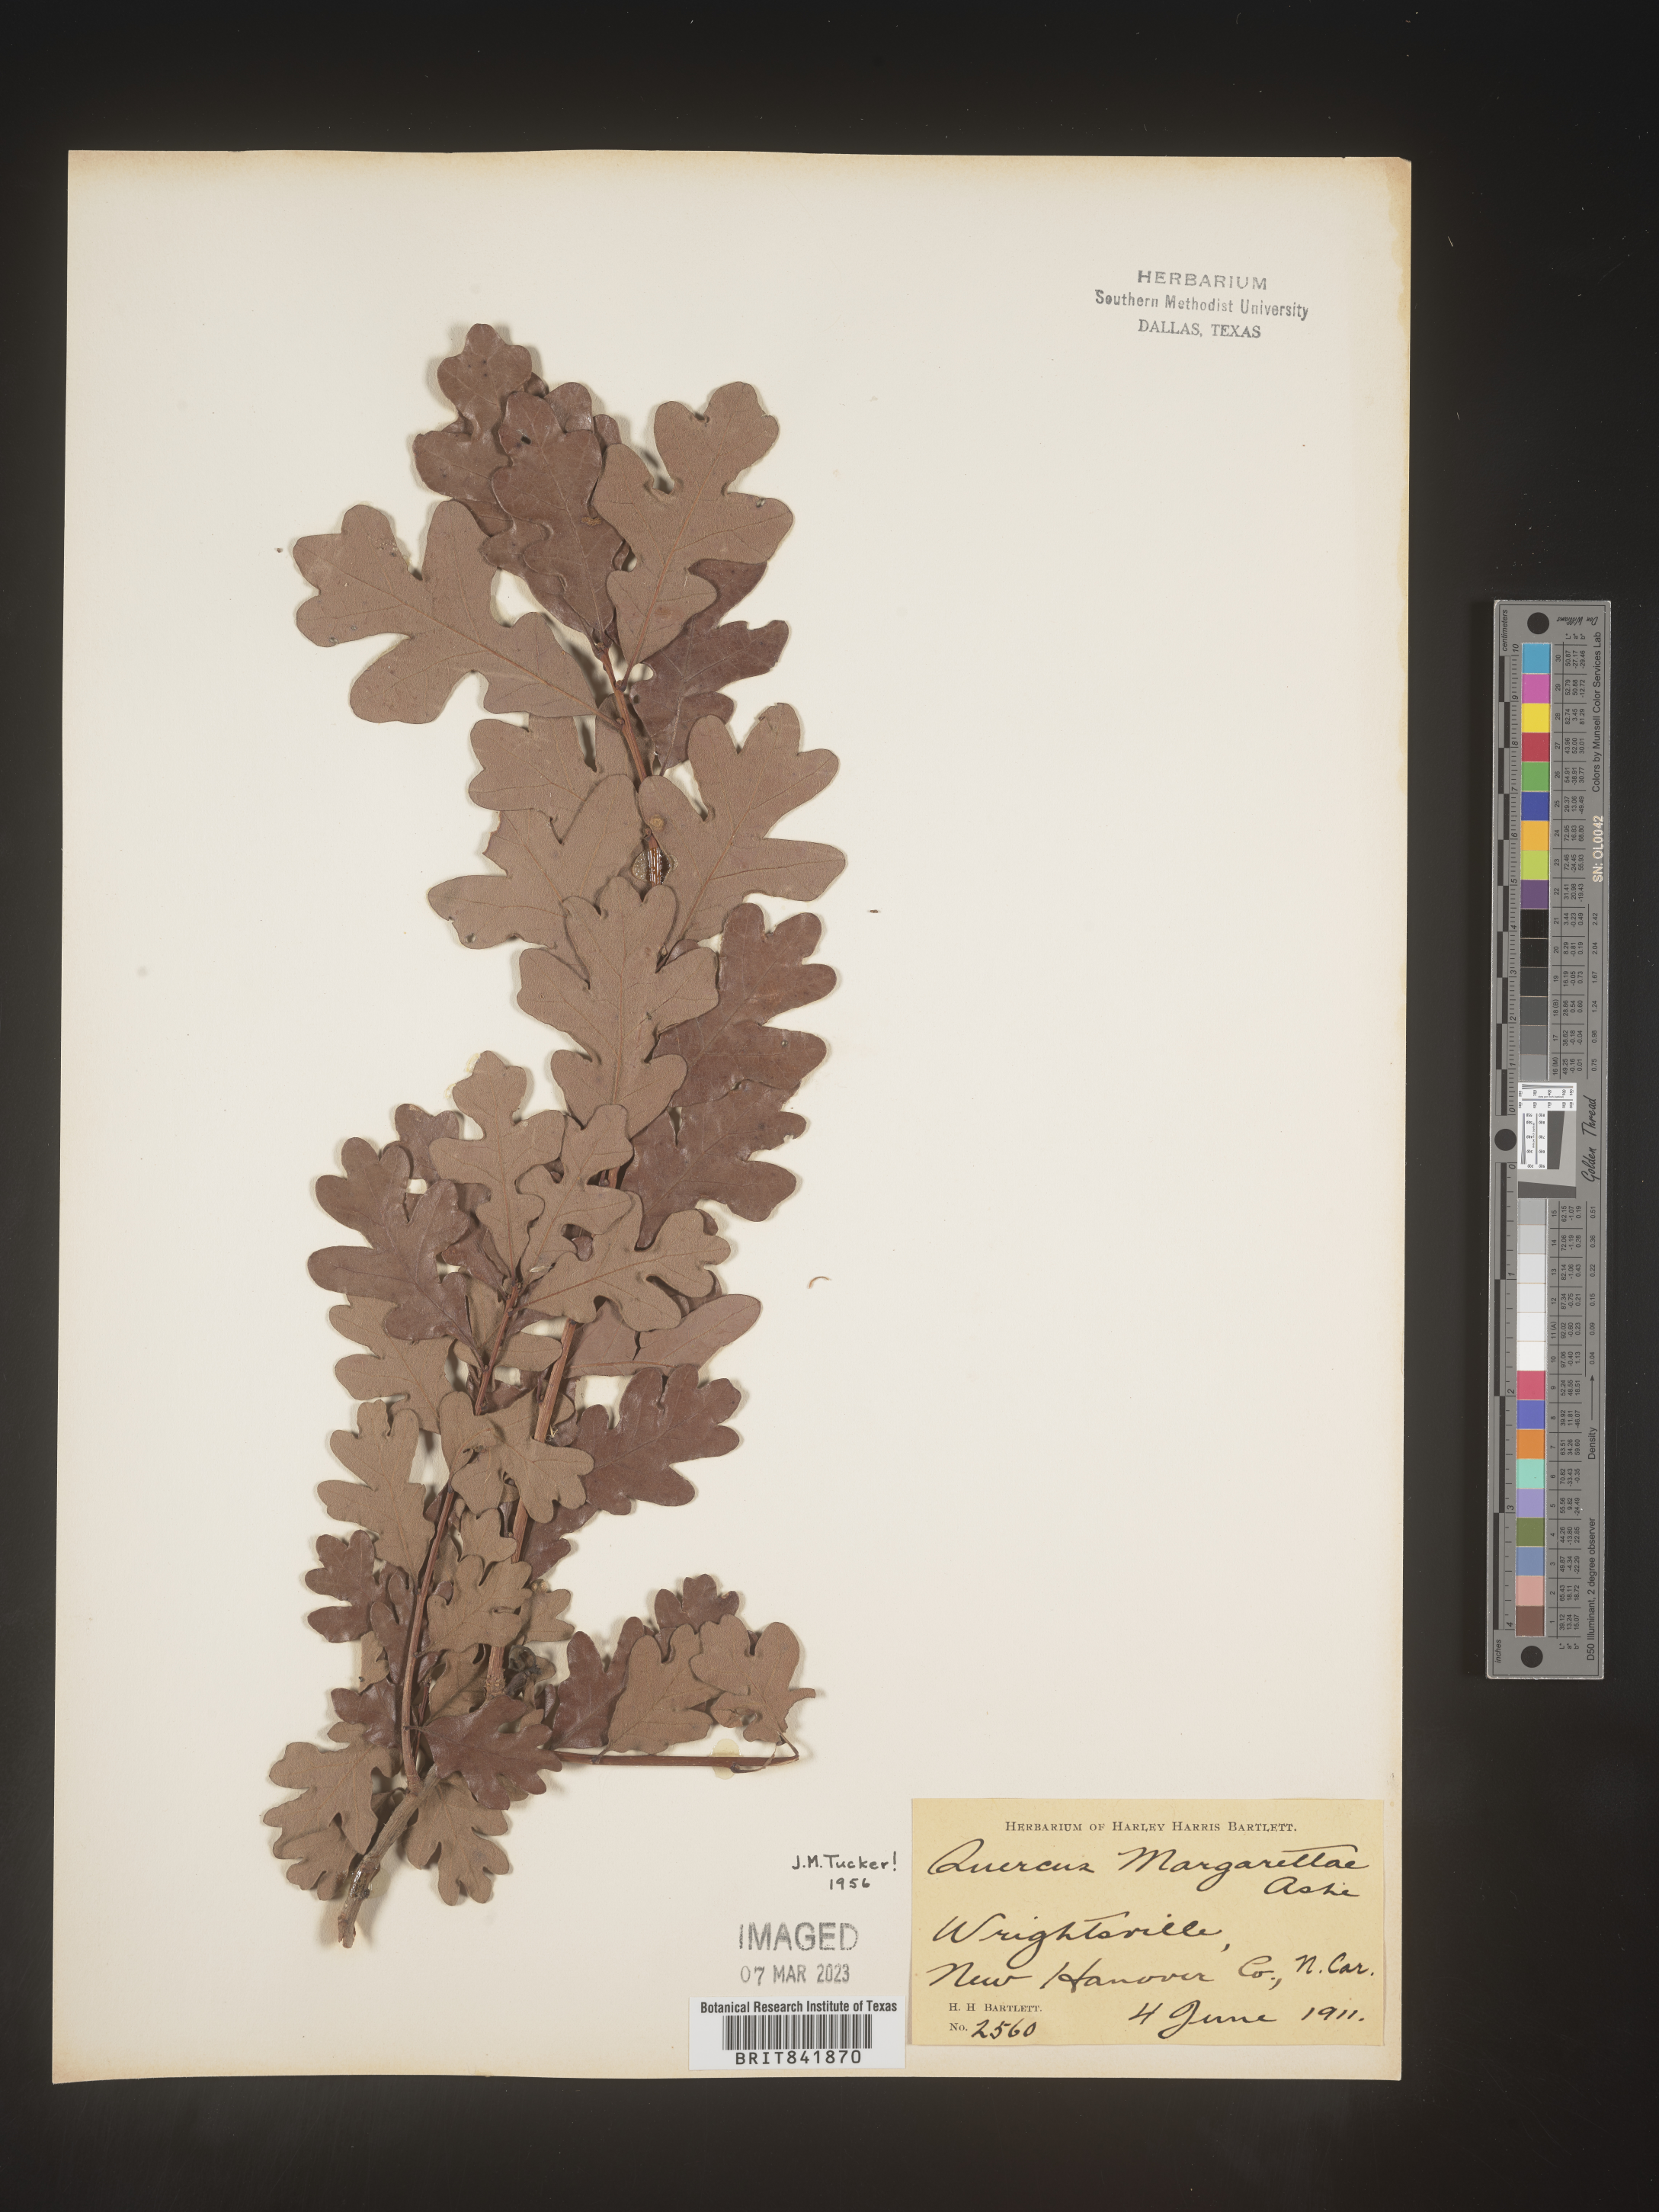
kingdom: Plantae
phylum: Tracheophyta
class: Magnoliopsida
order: Fagales
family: Fagaceae
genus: Quercus
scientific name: Quercus stellata
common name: Post oak
